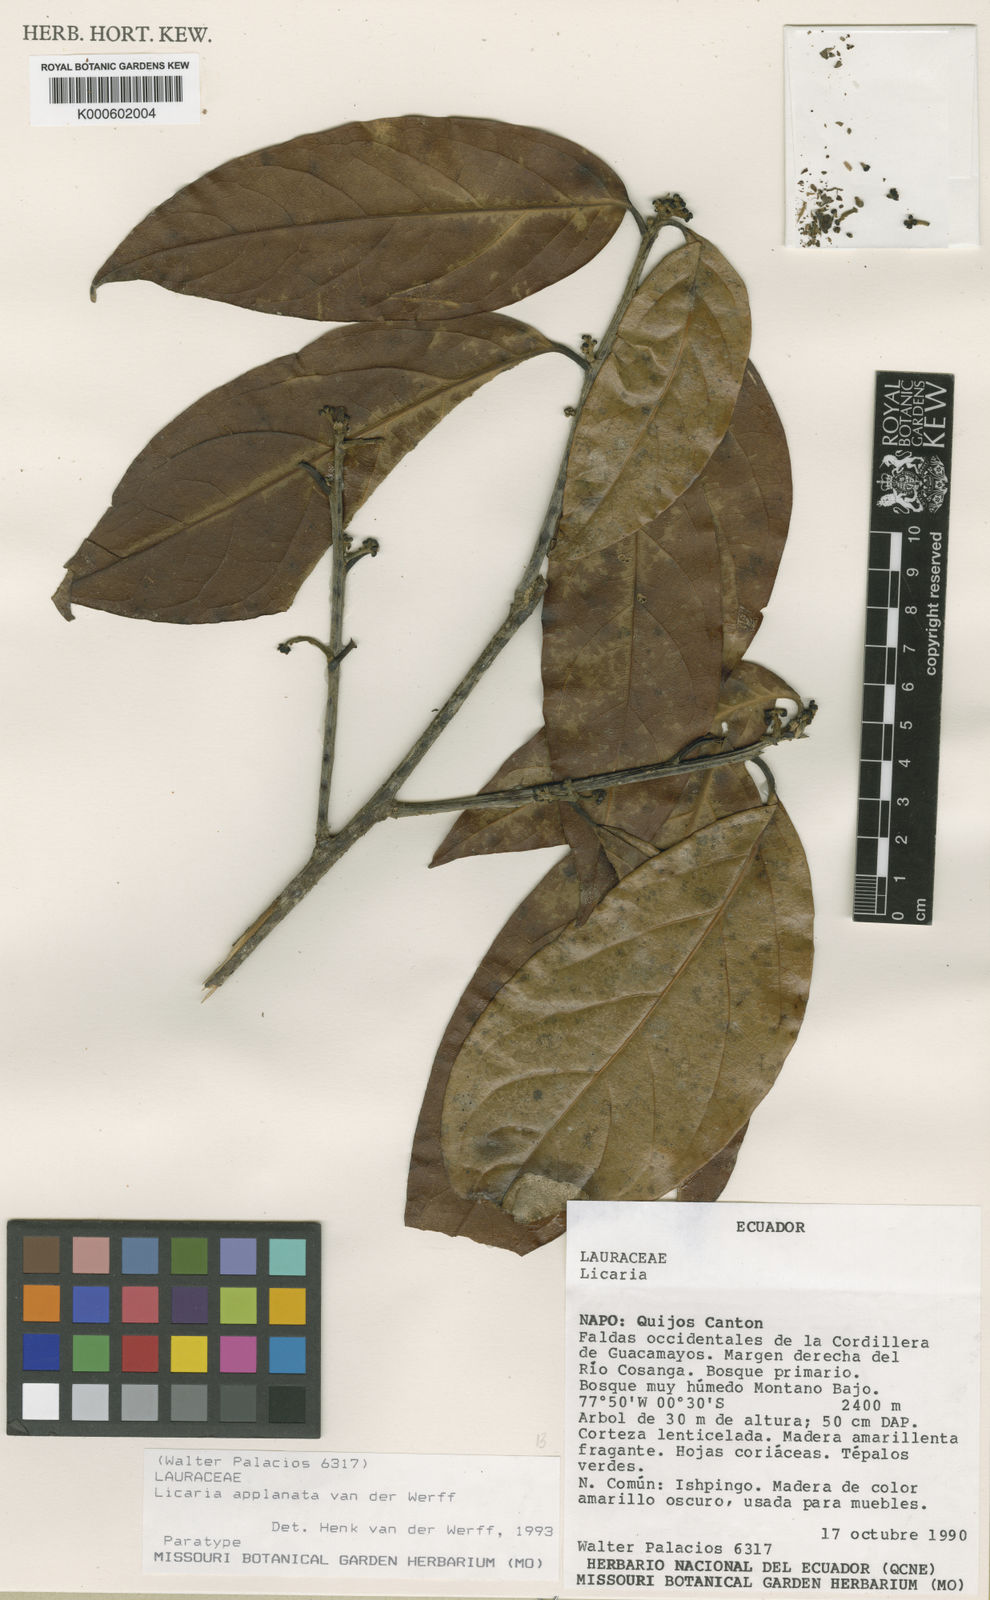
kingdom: Plantae
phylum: Tracheophyta
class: Magnoliopsida
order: Laurales
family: Lauraceae
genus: Licaria
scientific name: Licaria applanata
